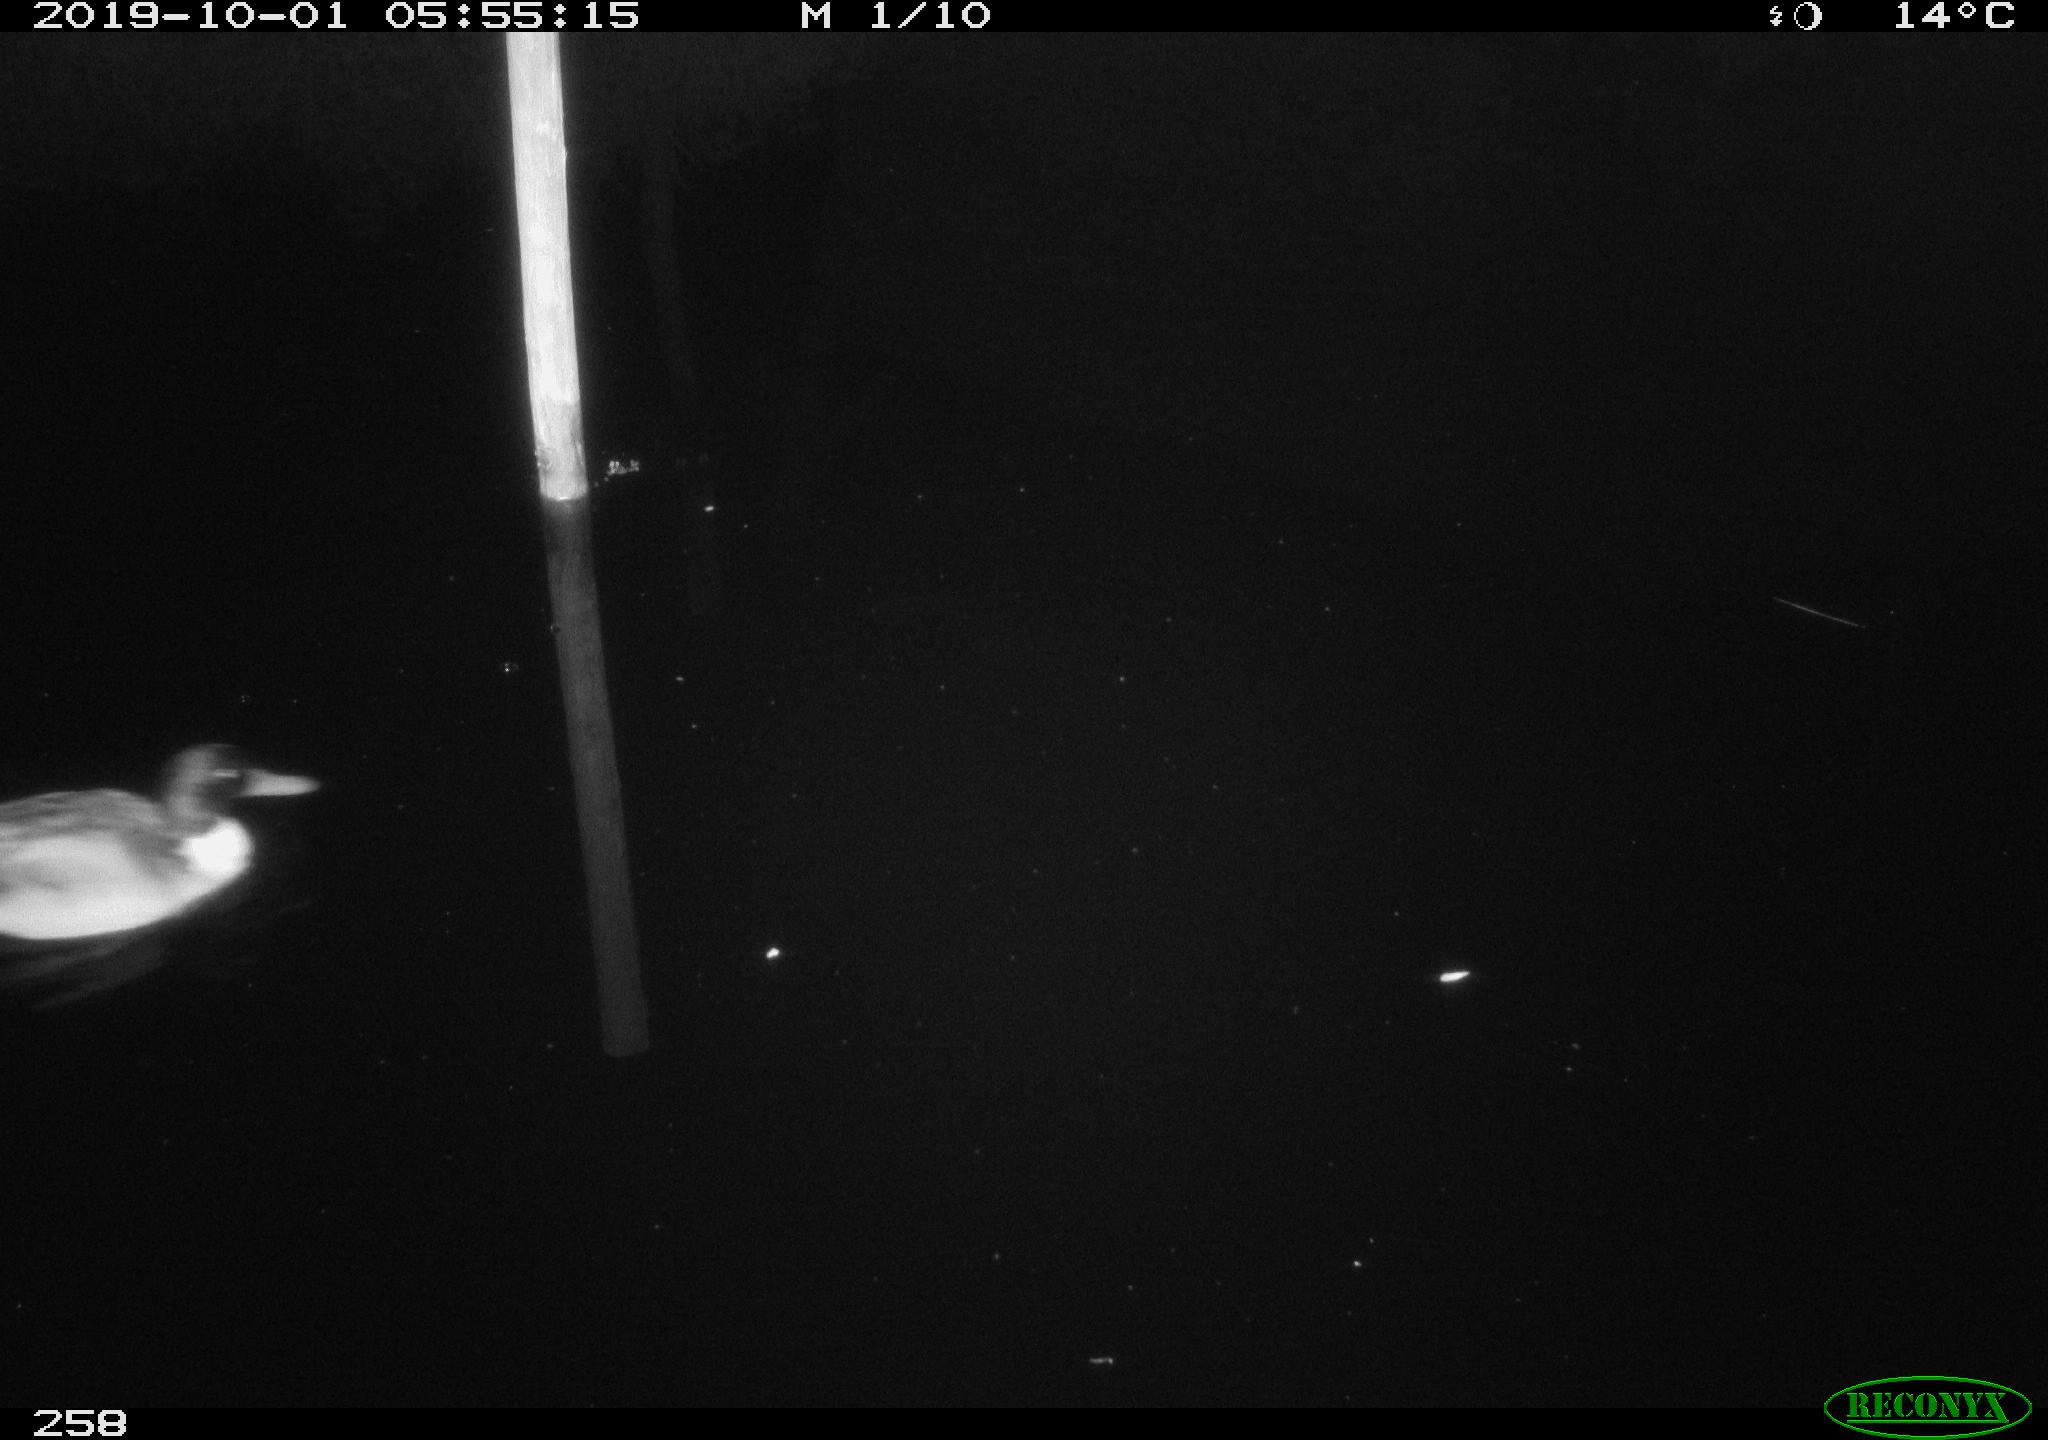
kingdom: Animalia
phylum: Chordata
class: Aves
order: Anseriformes
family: Anatidae
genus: Anas
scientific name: Anas platyrhynchos
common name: Mallard
